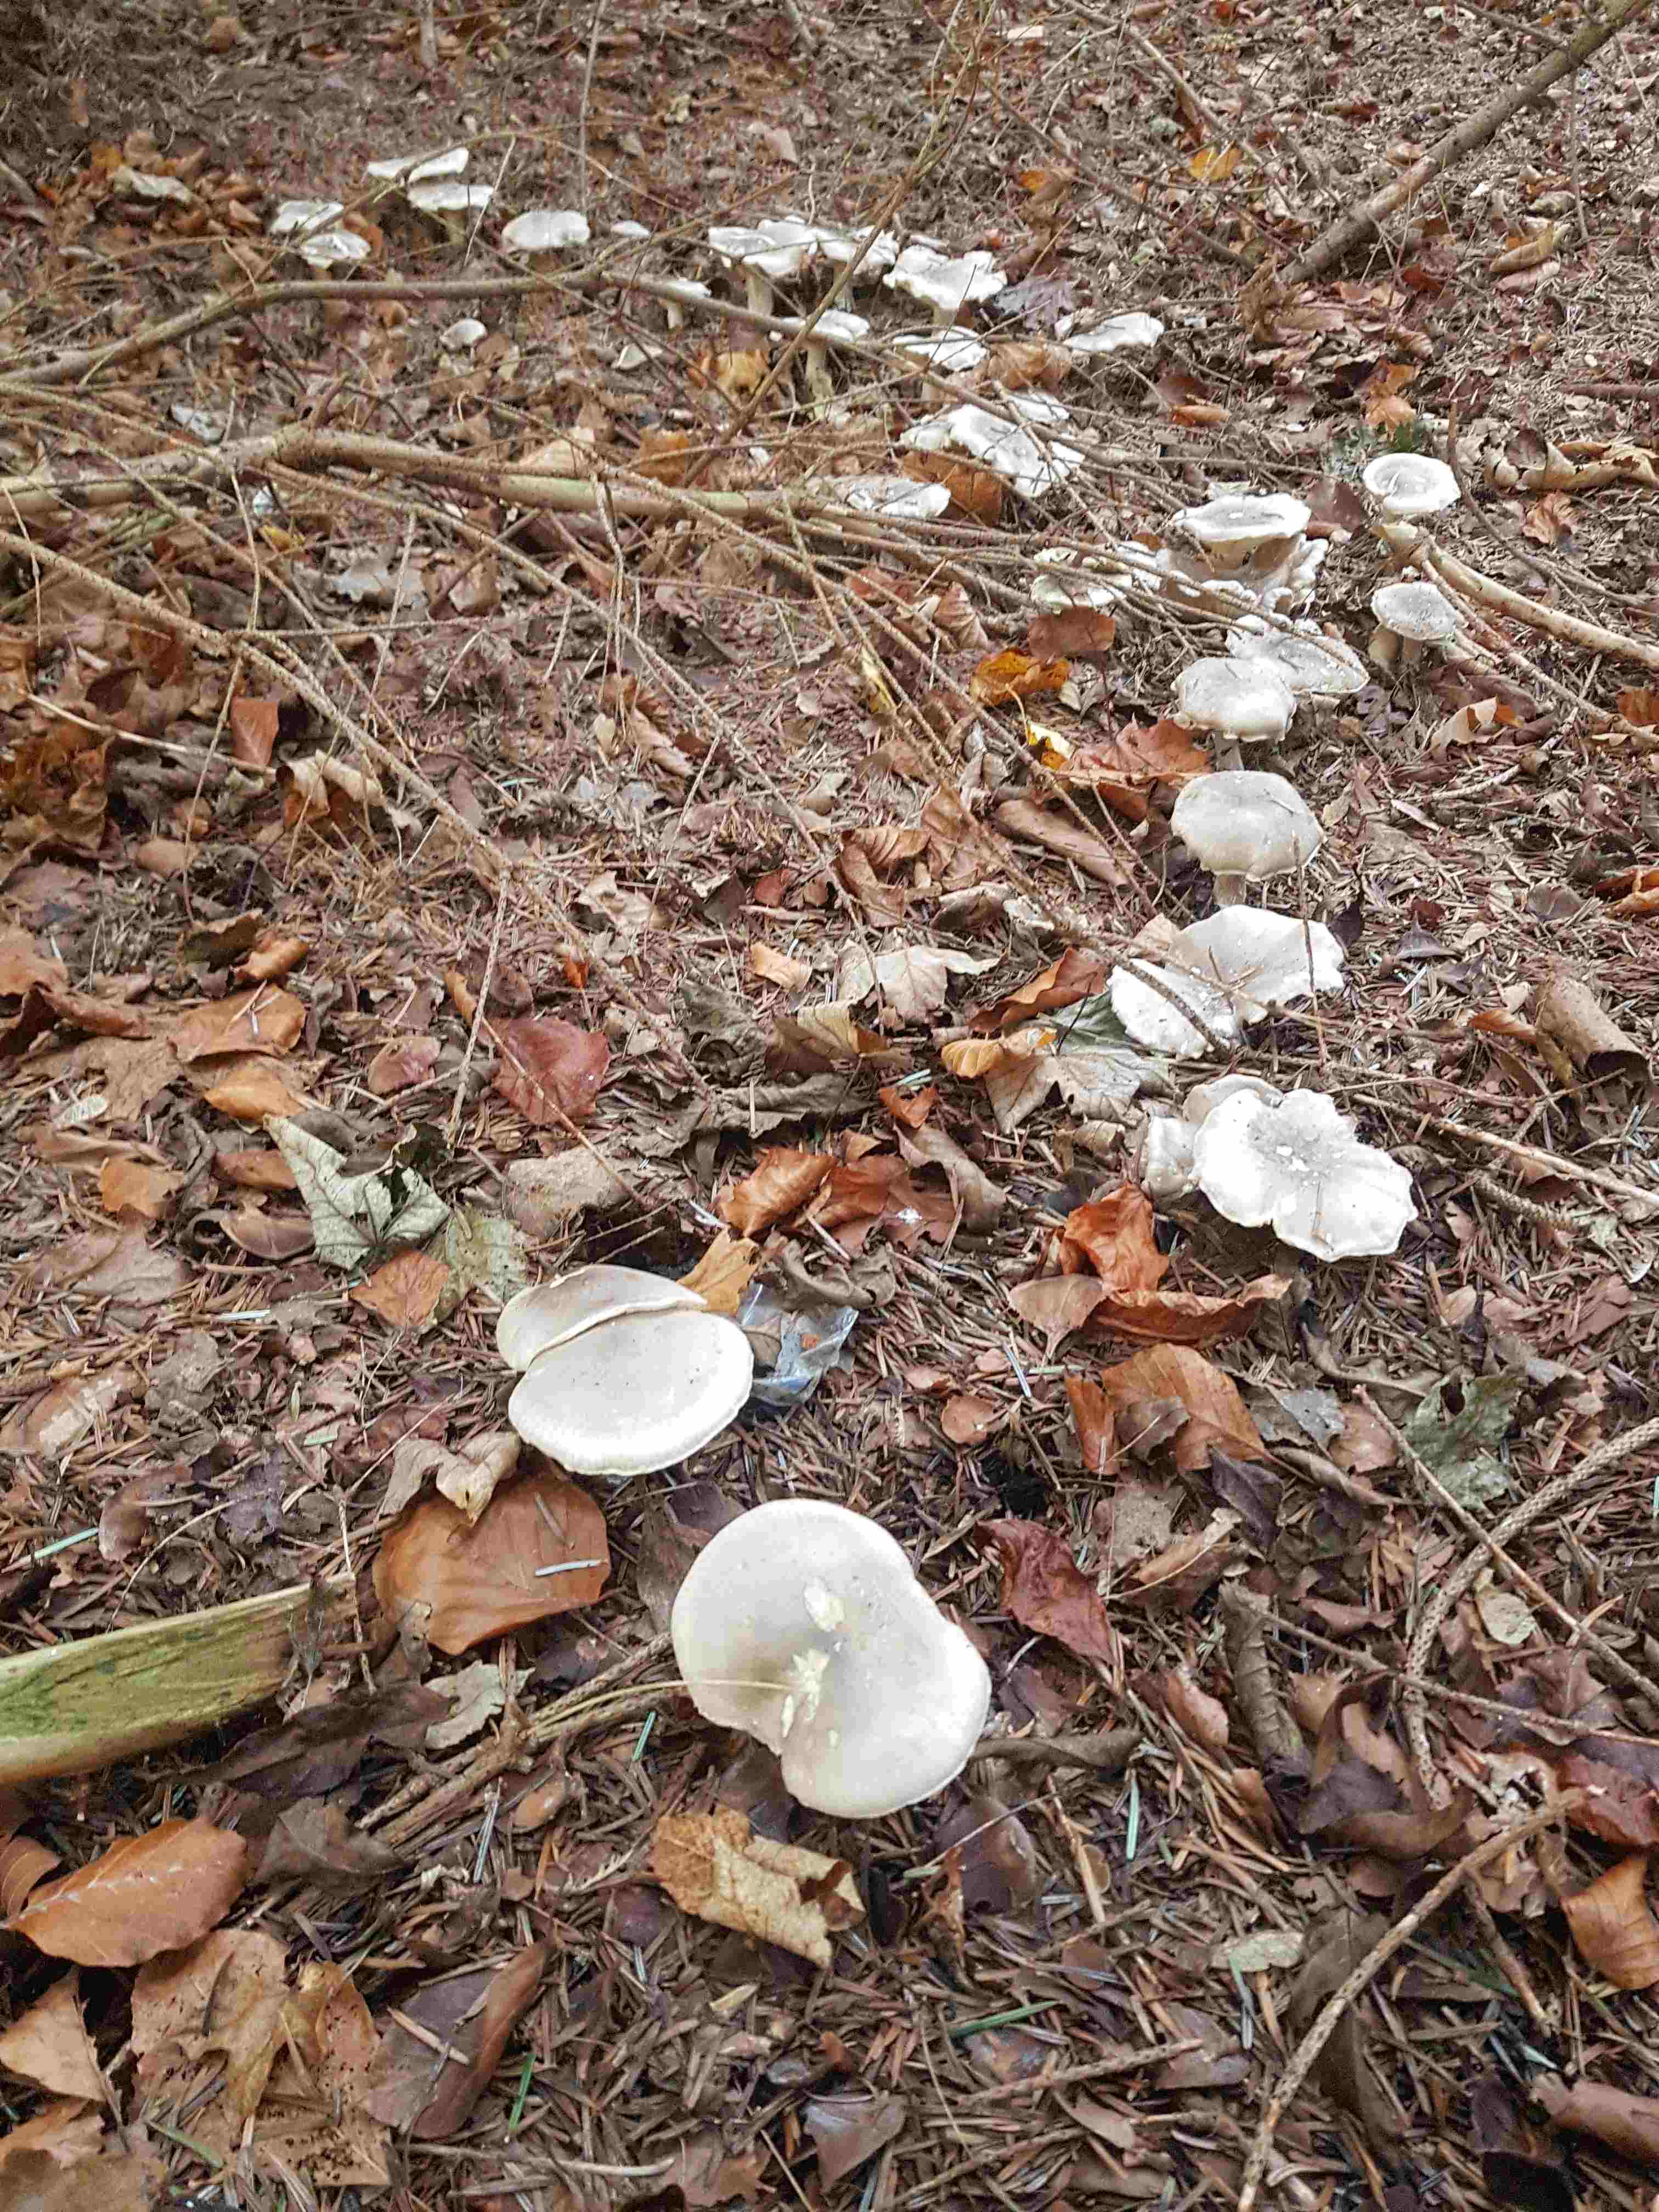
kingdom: Fungi
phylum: Basidiomycota
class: Agaricomycetes
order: Agaricales
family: Tricholomataceae
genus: Clitocybe
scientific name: Clitocybe nebularis
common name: tåge-tragthat
